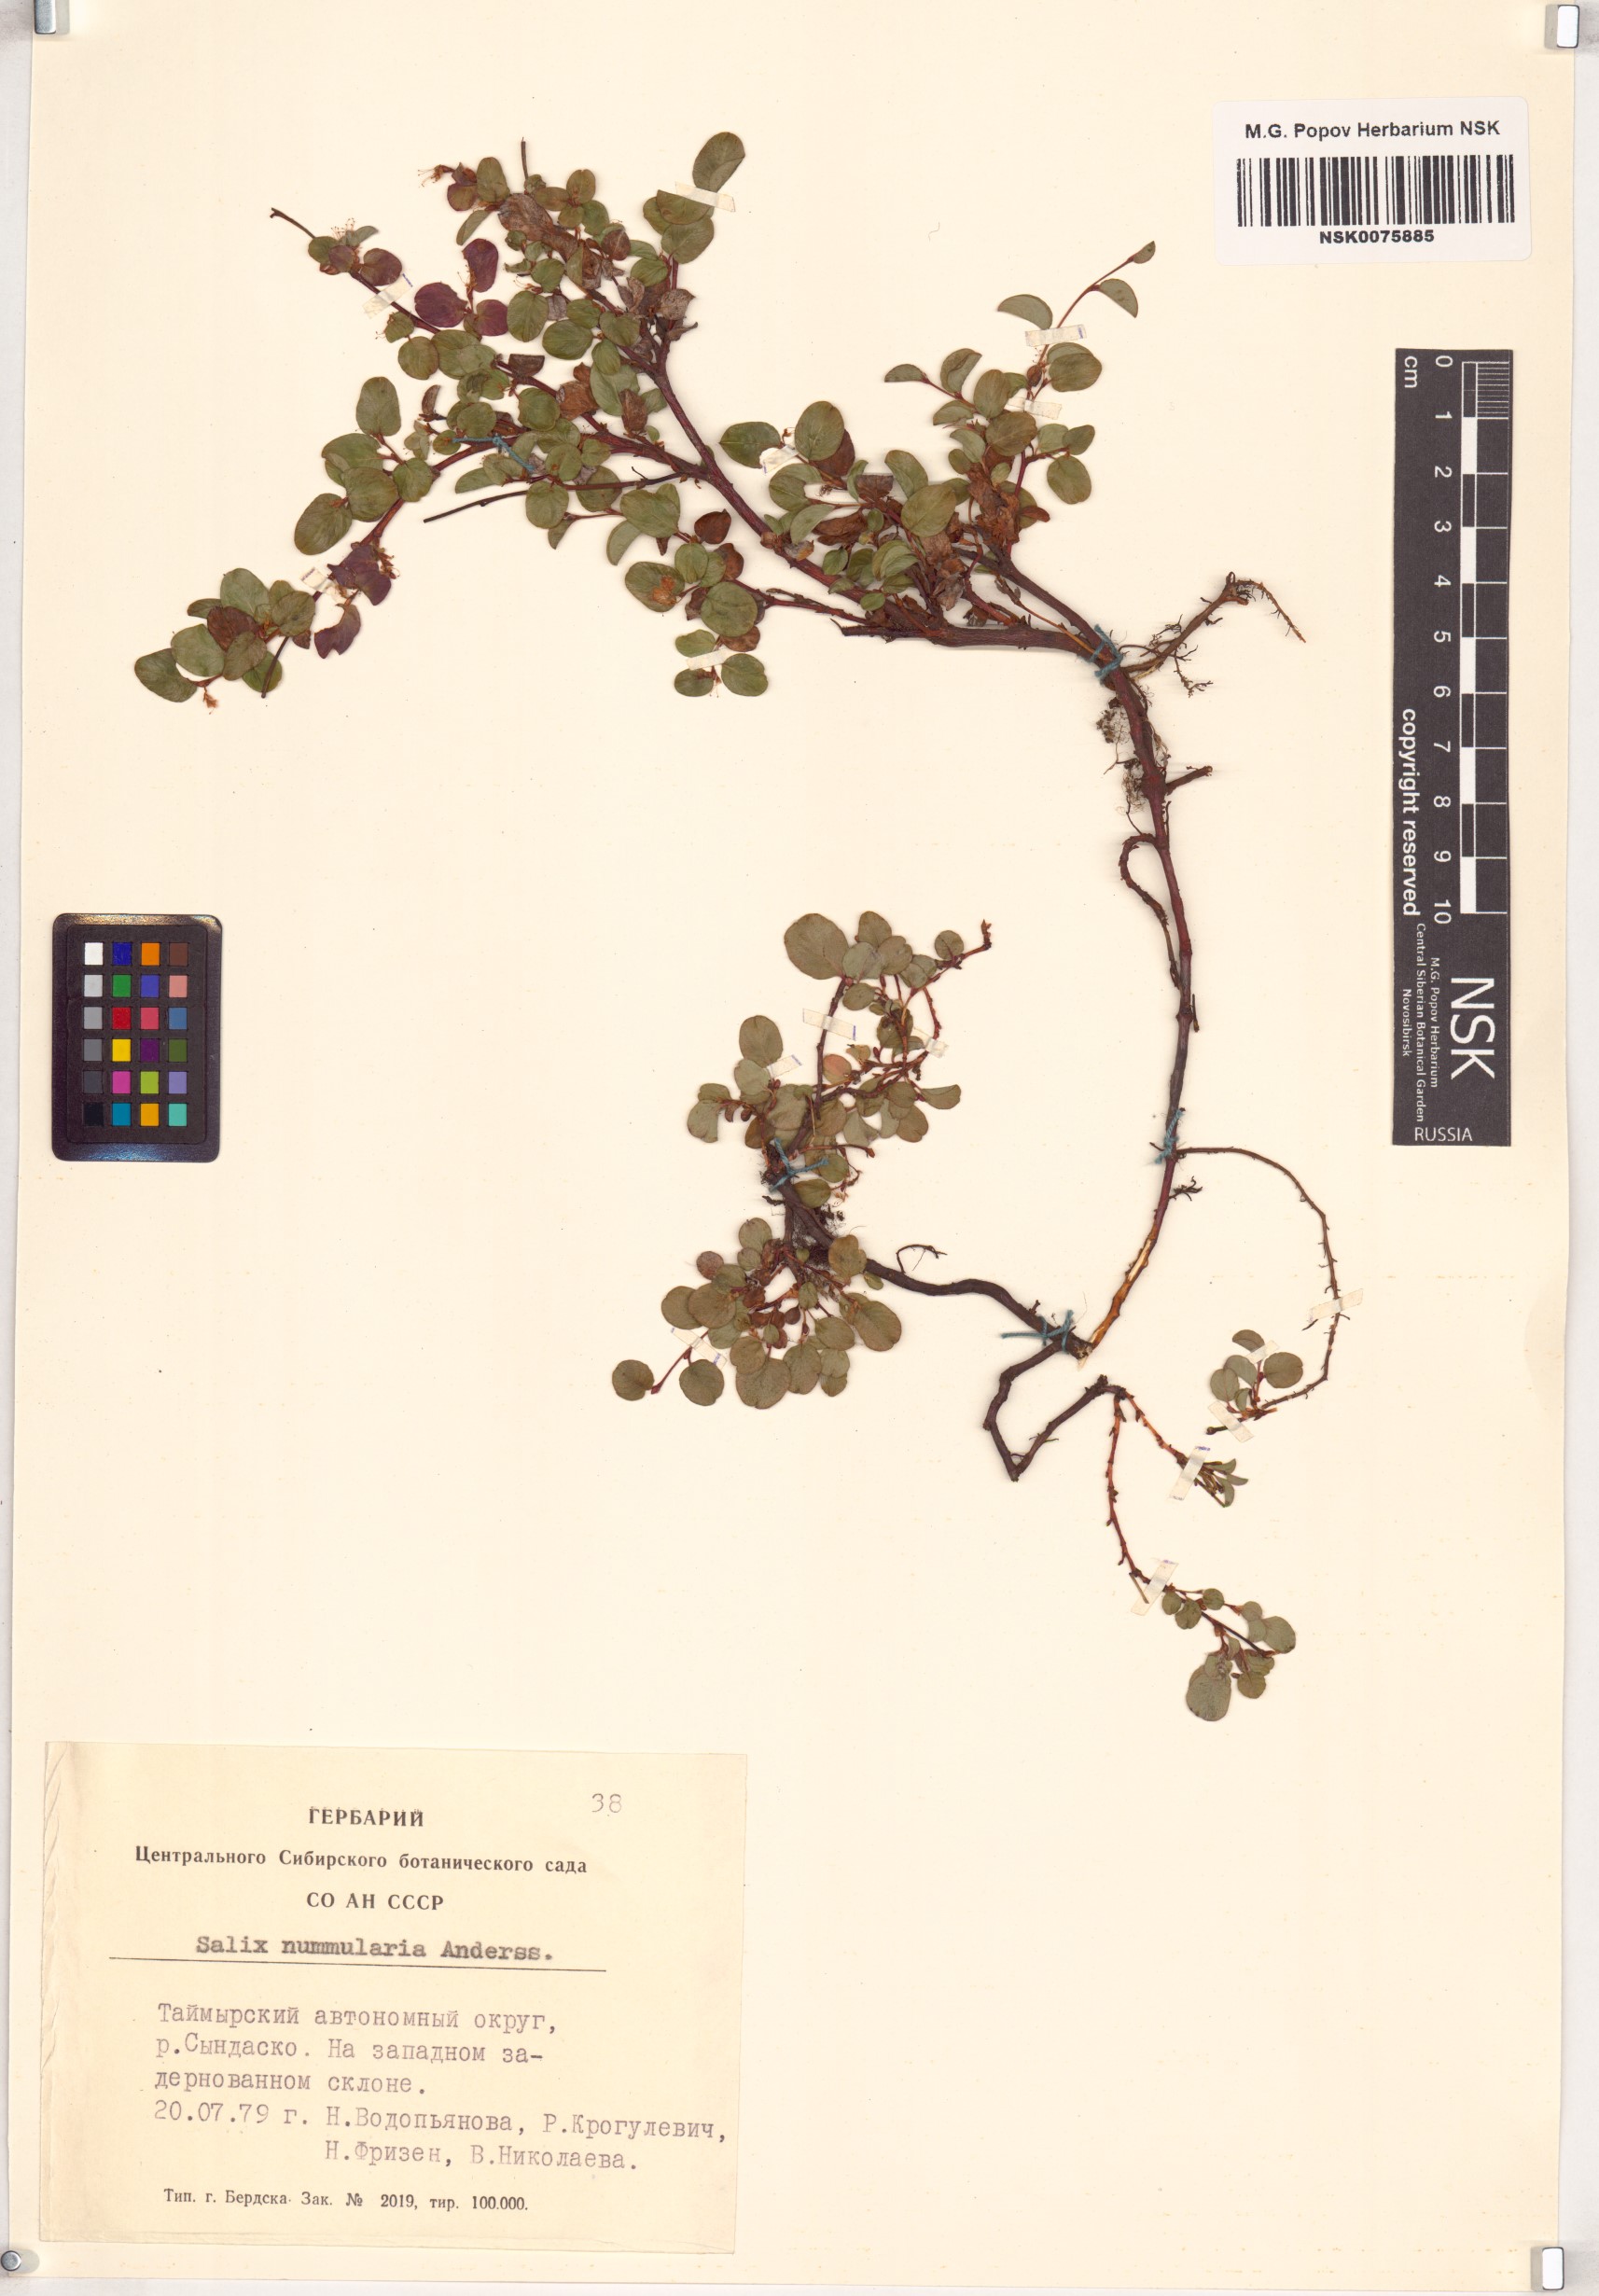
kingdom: Plantae
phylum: Tracheophyta
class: Magnoliopsida
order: Malpighiales
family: Salicaceae
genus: Salix
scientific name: Salix nummularia
